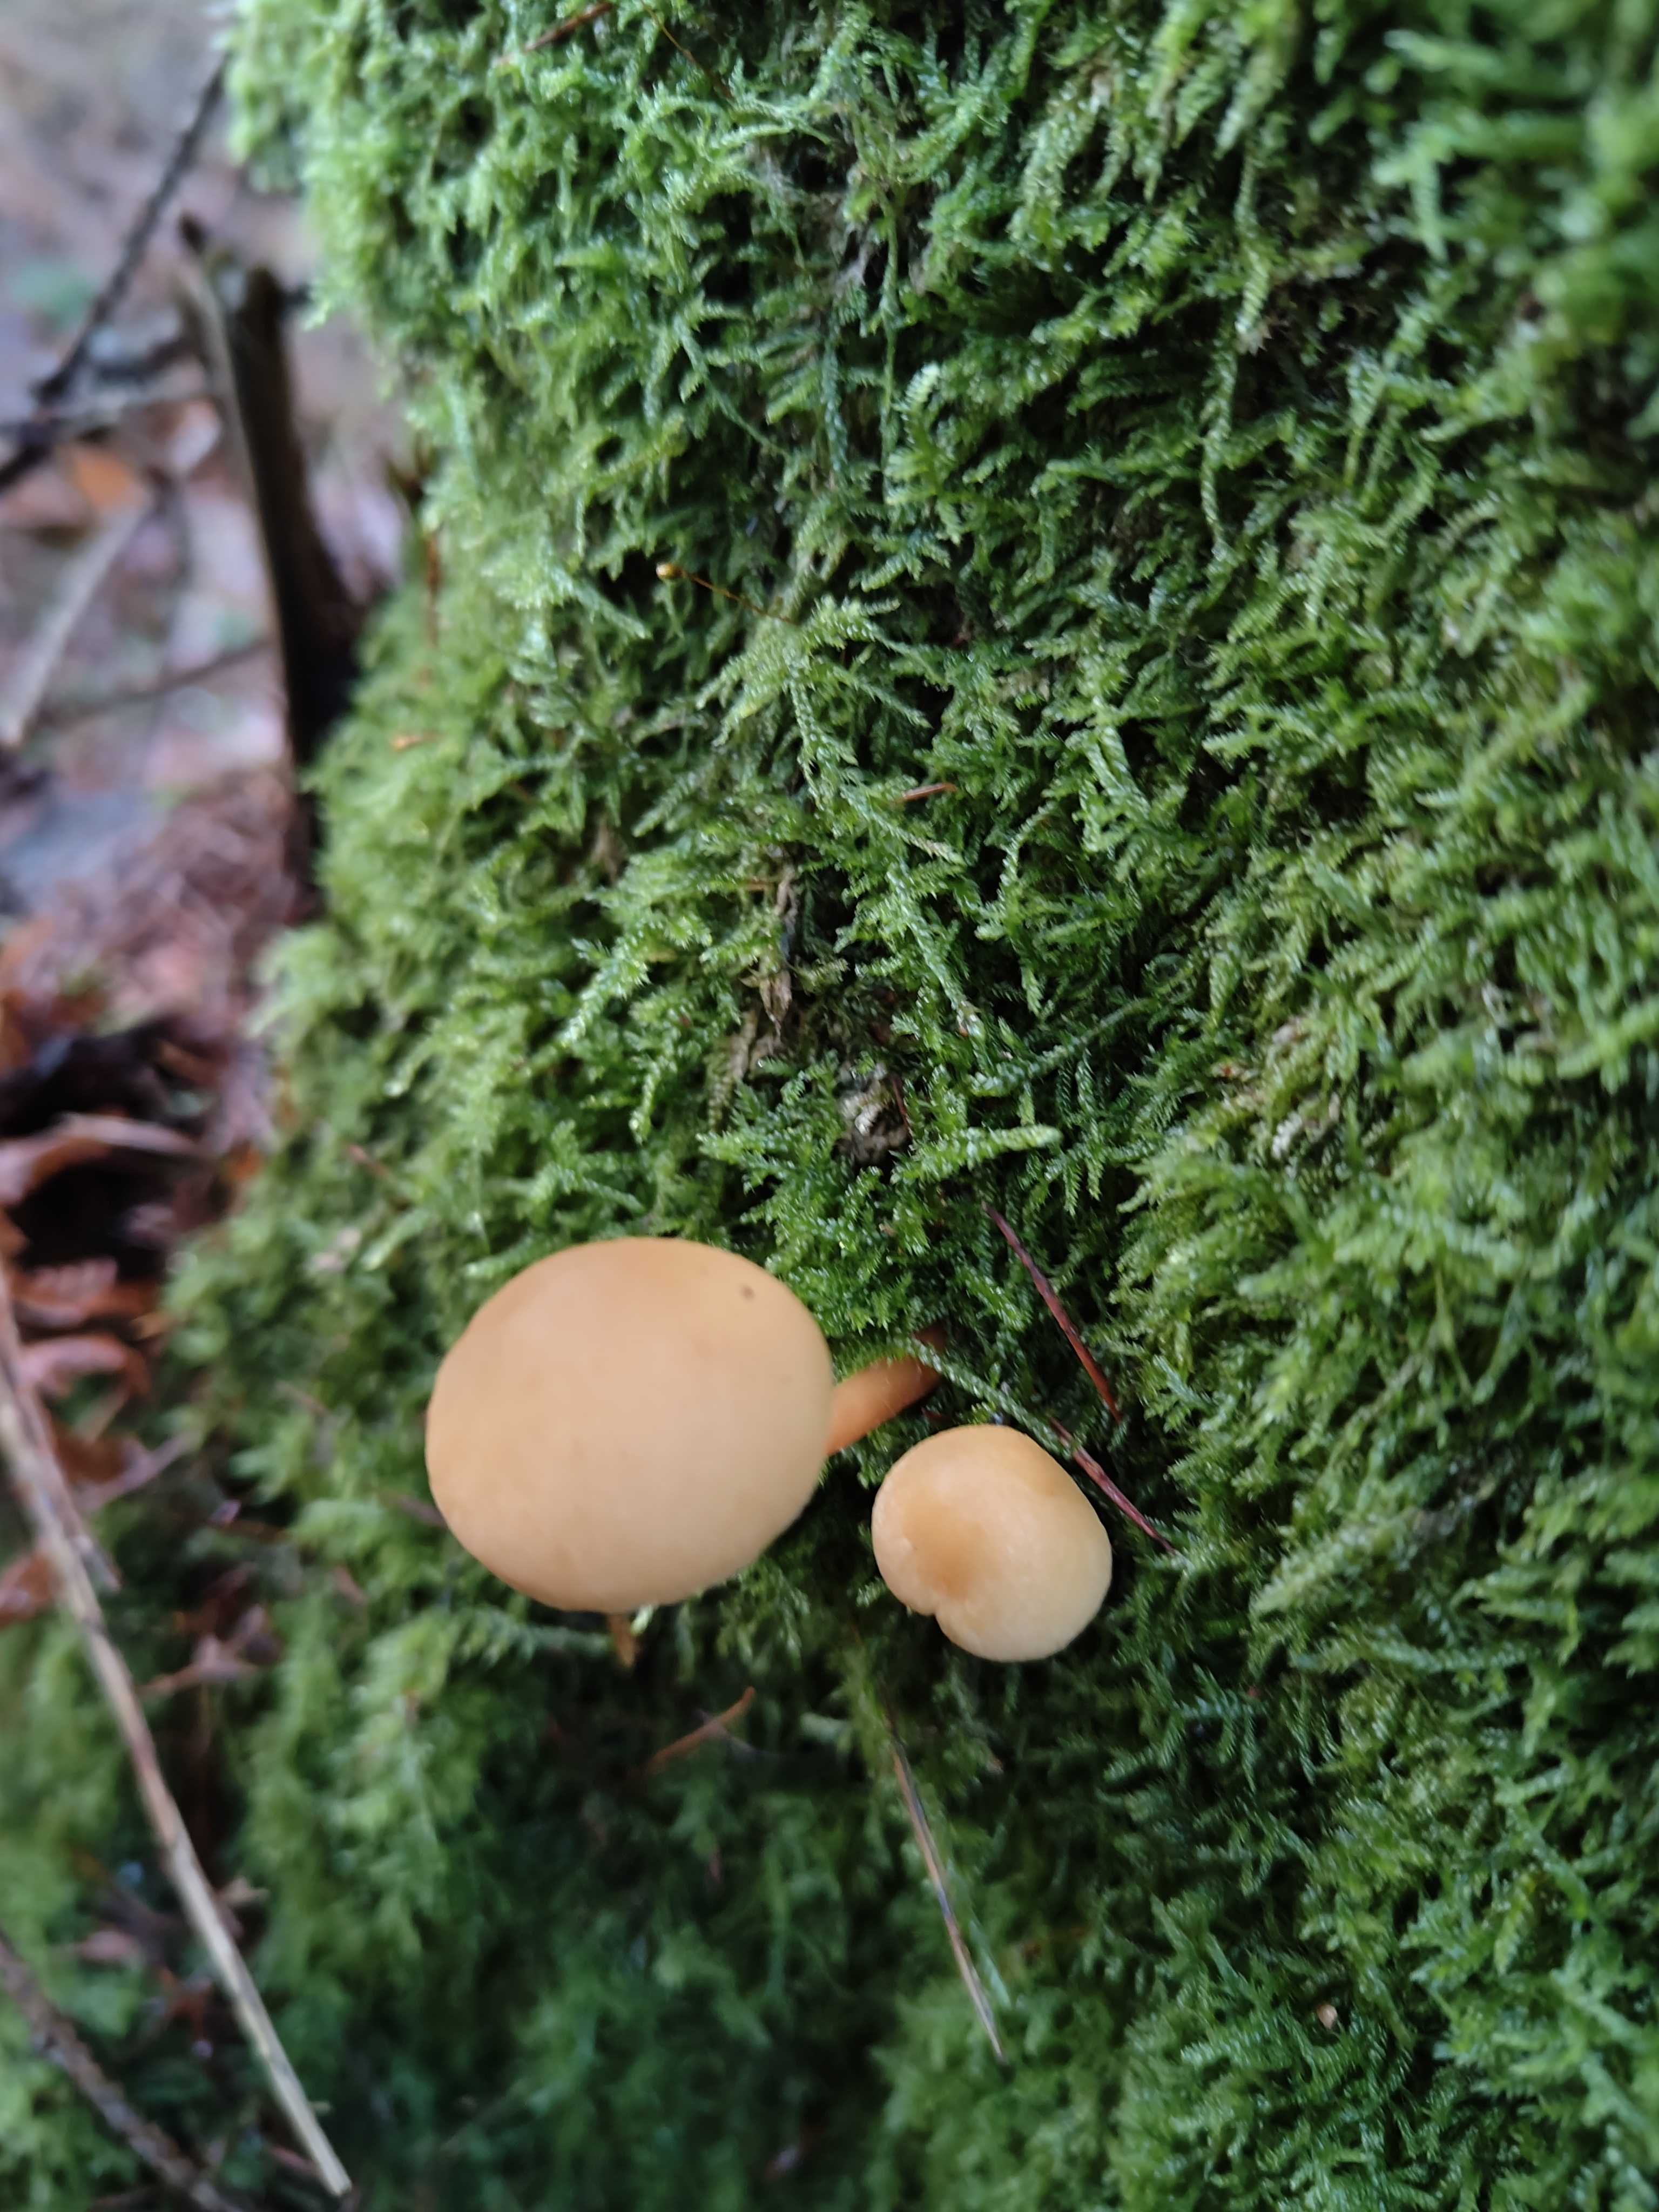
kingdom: Fungi
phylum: Basidiomycota
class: Agaricomycetes
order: Agaricales
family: Strophariaceae
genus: Hypholoma
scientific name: Hypholoma capnoides
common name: gran-svovlhat
